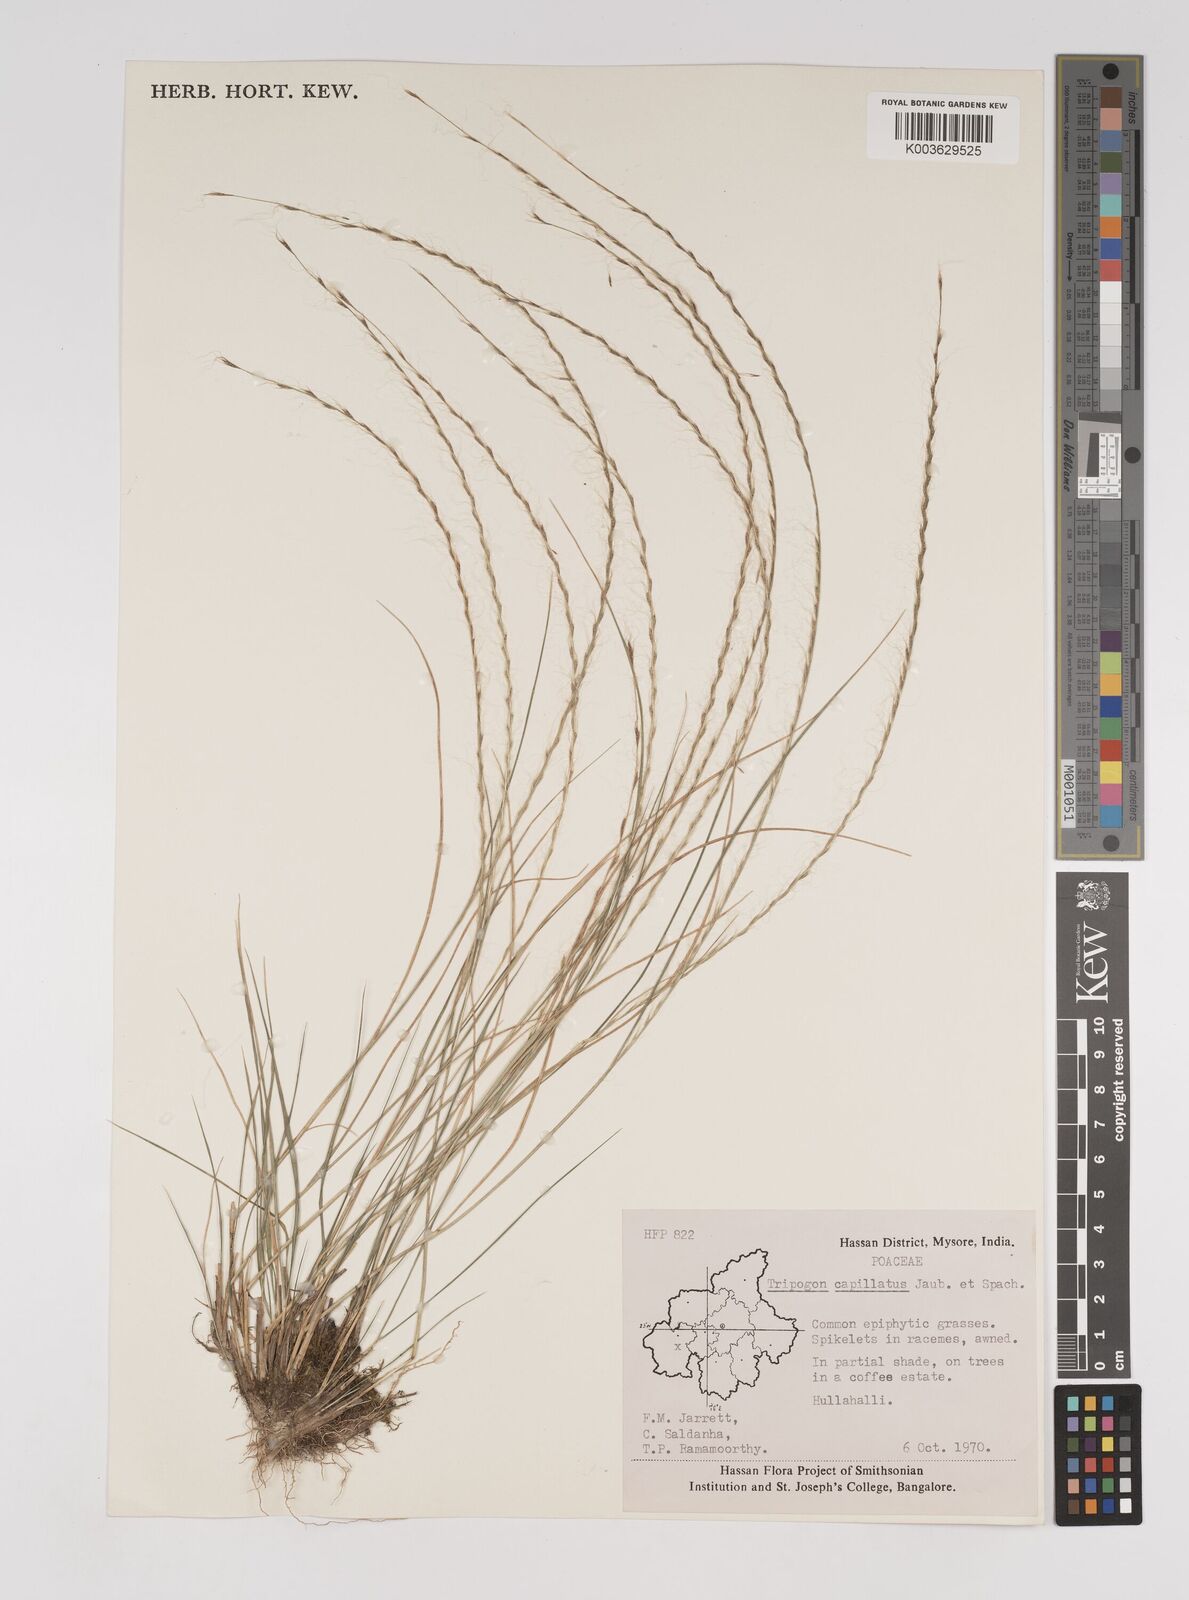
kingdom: Plantae
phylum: Tracheophyta
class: Liliopsida
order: Poales
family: Poaceae
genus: Tripogon
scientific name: Tripogon capillatus
